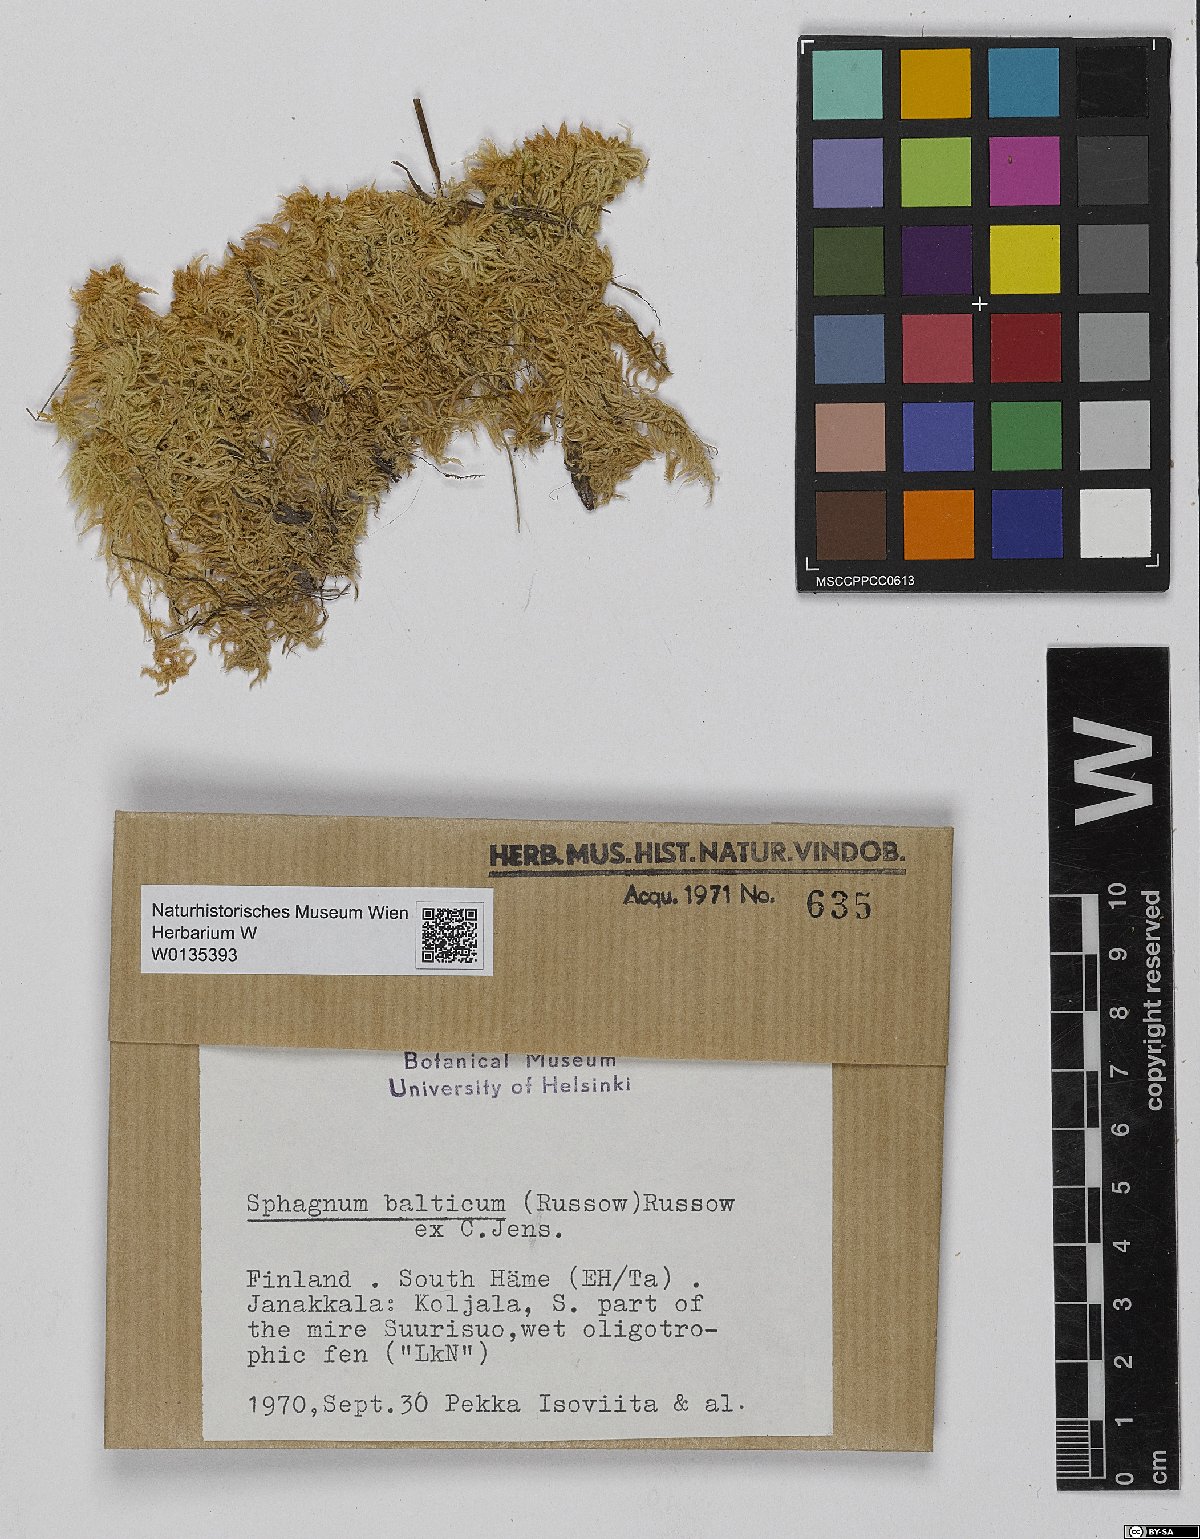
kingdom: Plantae
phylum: Bryophyta
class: Sphagnopsida
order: Sphagnales
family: Sphagnaceae
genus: Sphagnum
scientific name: Sphagnum balticum
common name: Baltic bog-moss
